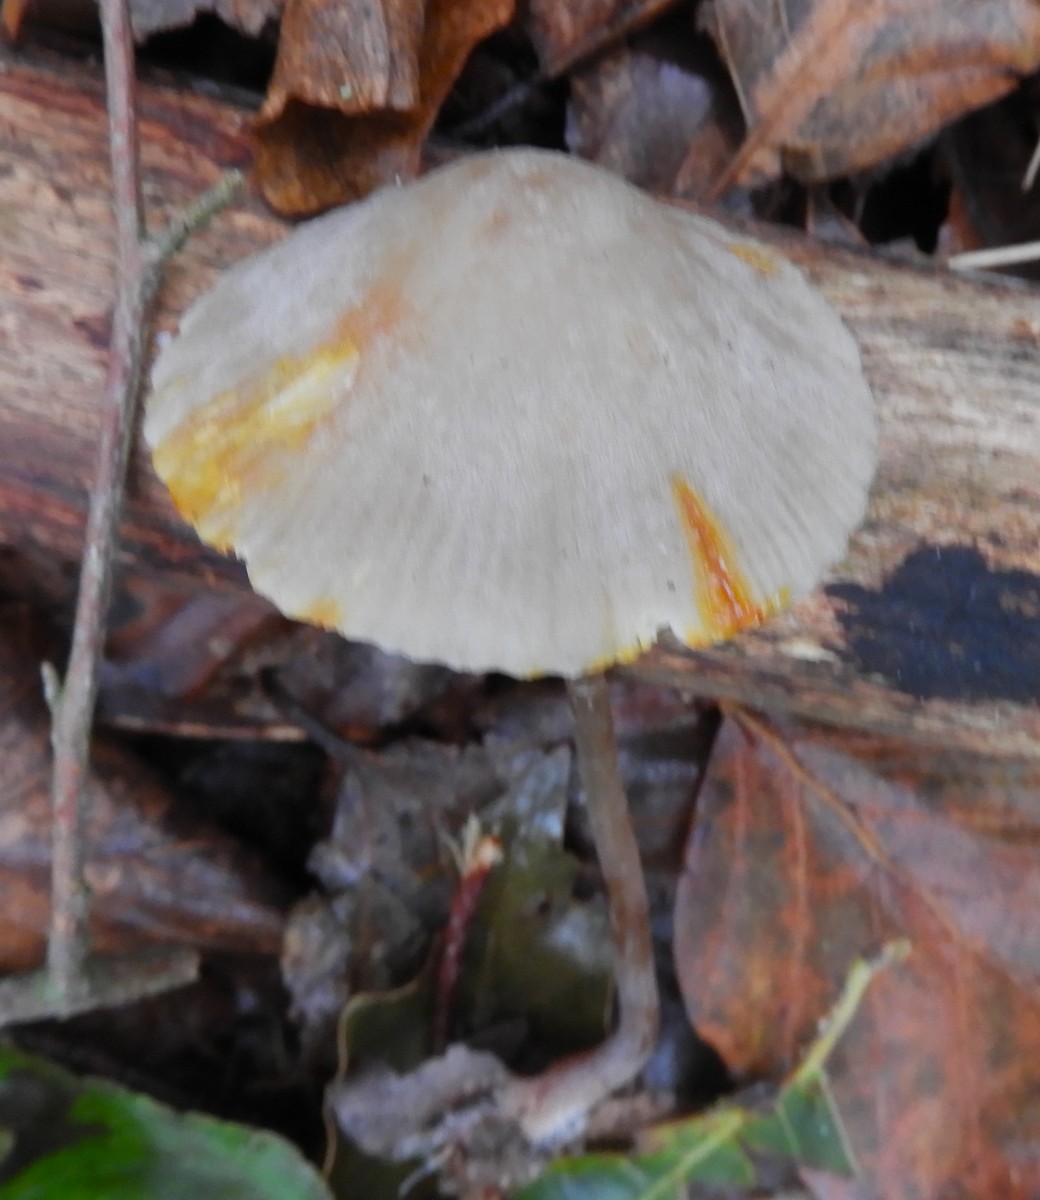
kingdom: Fungi
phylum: Basidiomycota
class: Agaricomycetes
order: Agaricales
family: Mycenaceae
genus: Mycena
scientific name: Mycena crocata
